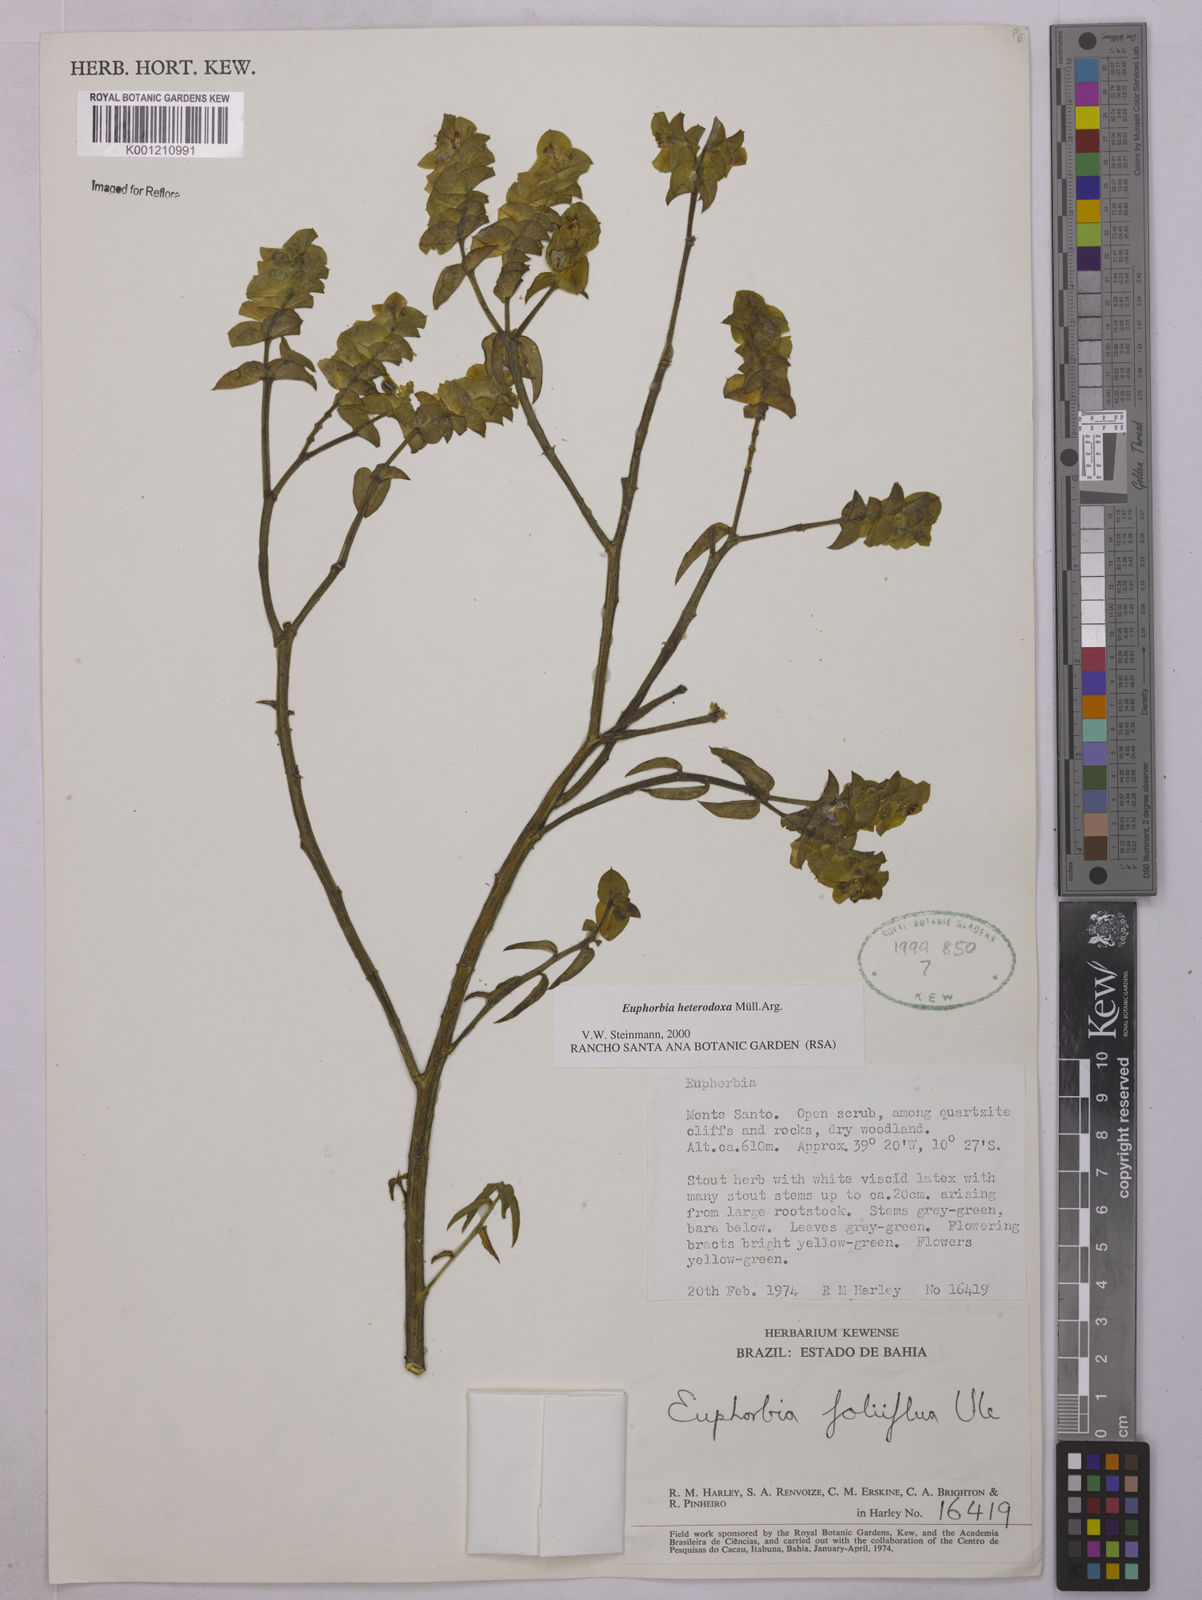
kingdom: Plantae
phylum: Tracheophyta
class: Magnoliopsida
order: Malpighiales
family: Euphorbiaceae
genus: Euphorbia
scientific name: Euphorbia
